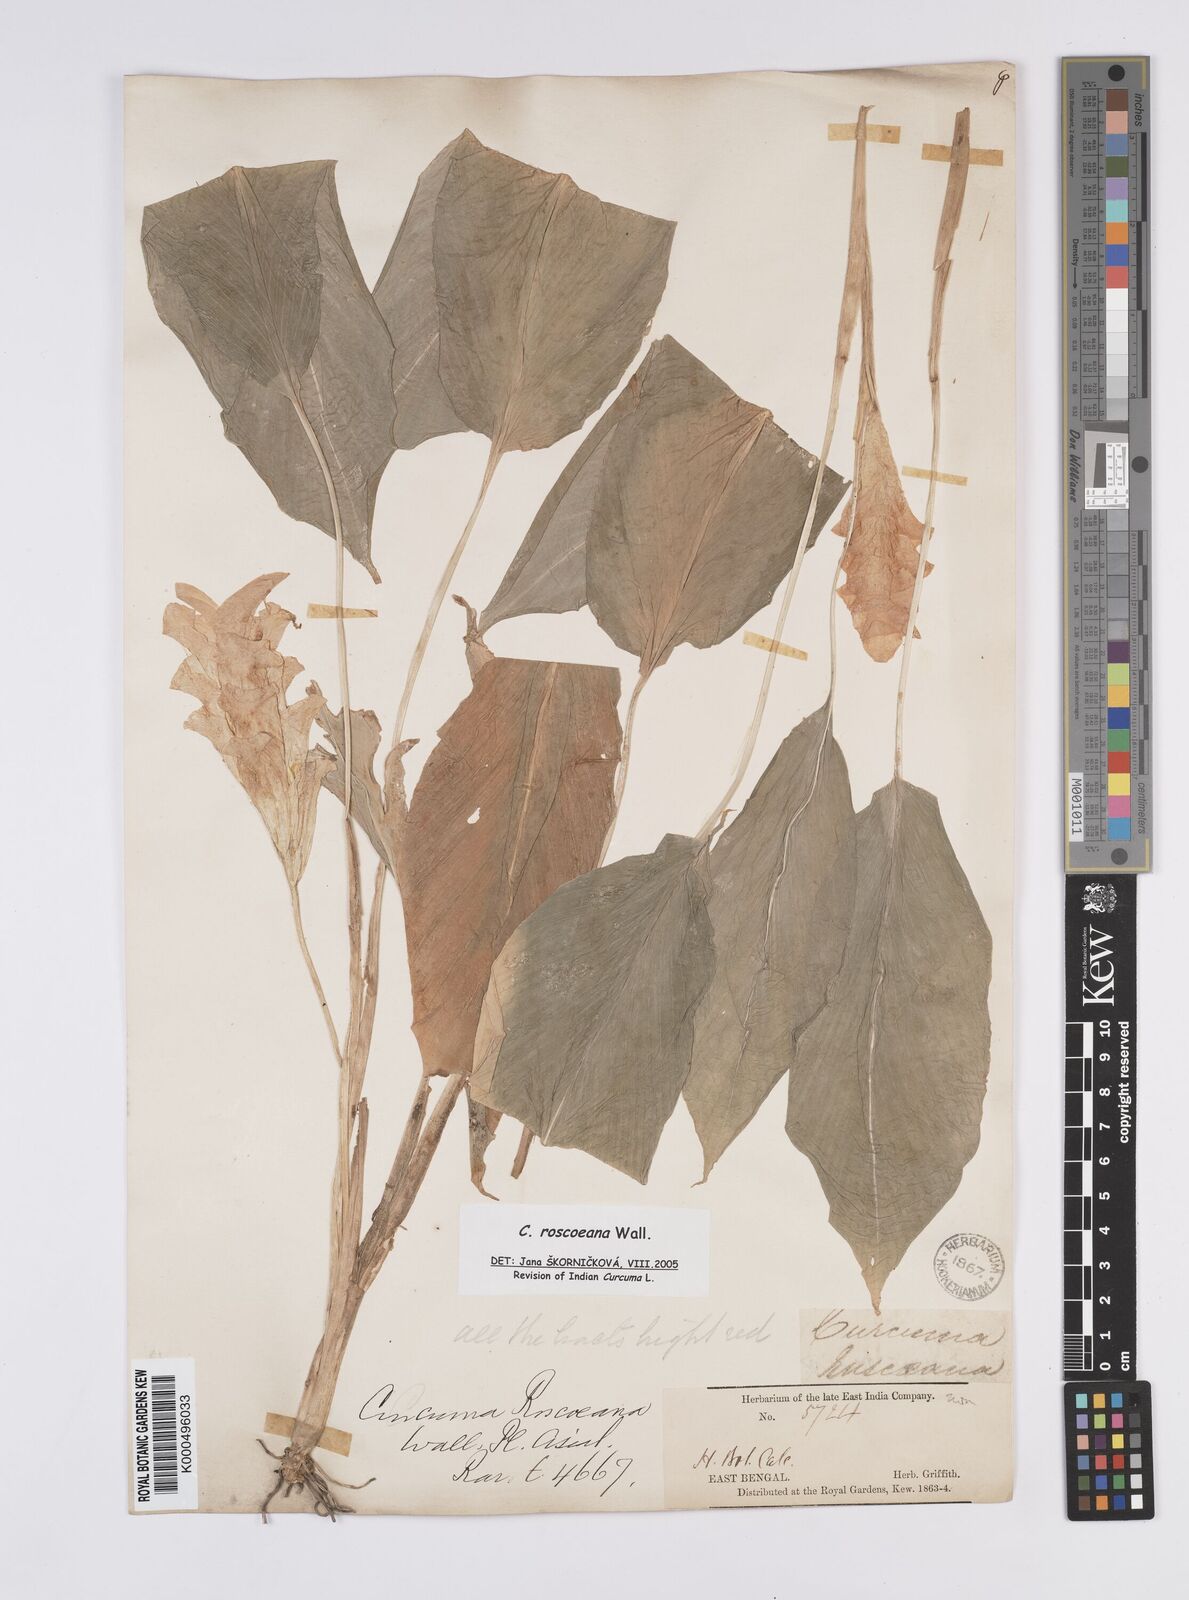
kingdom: Plantae
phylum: Tracheophyta
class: Liliopsida
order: Zingiberales
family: Zingiberaceae
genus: Curcuma
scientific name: Curcuma roscoeana
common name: Jewel of burma
